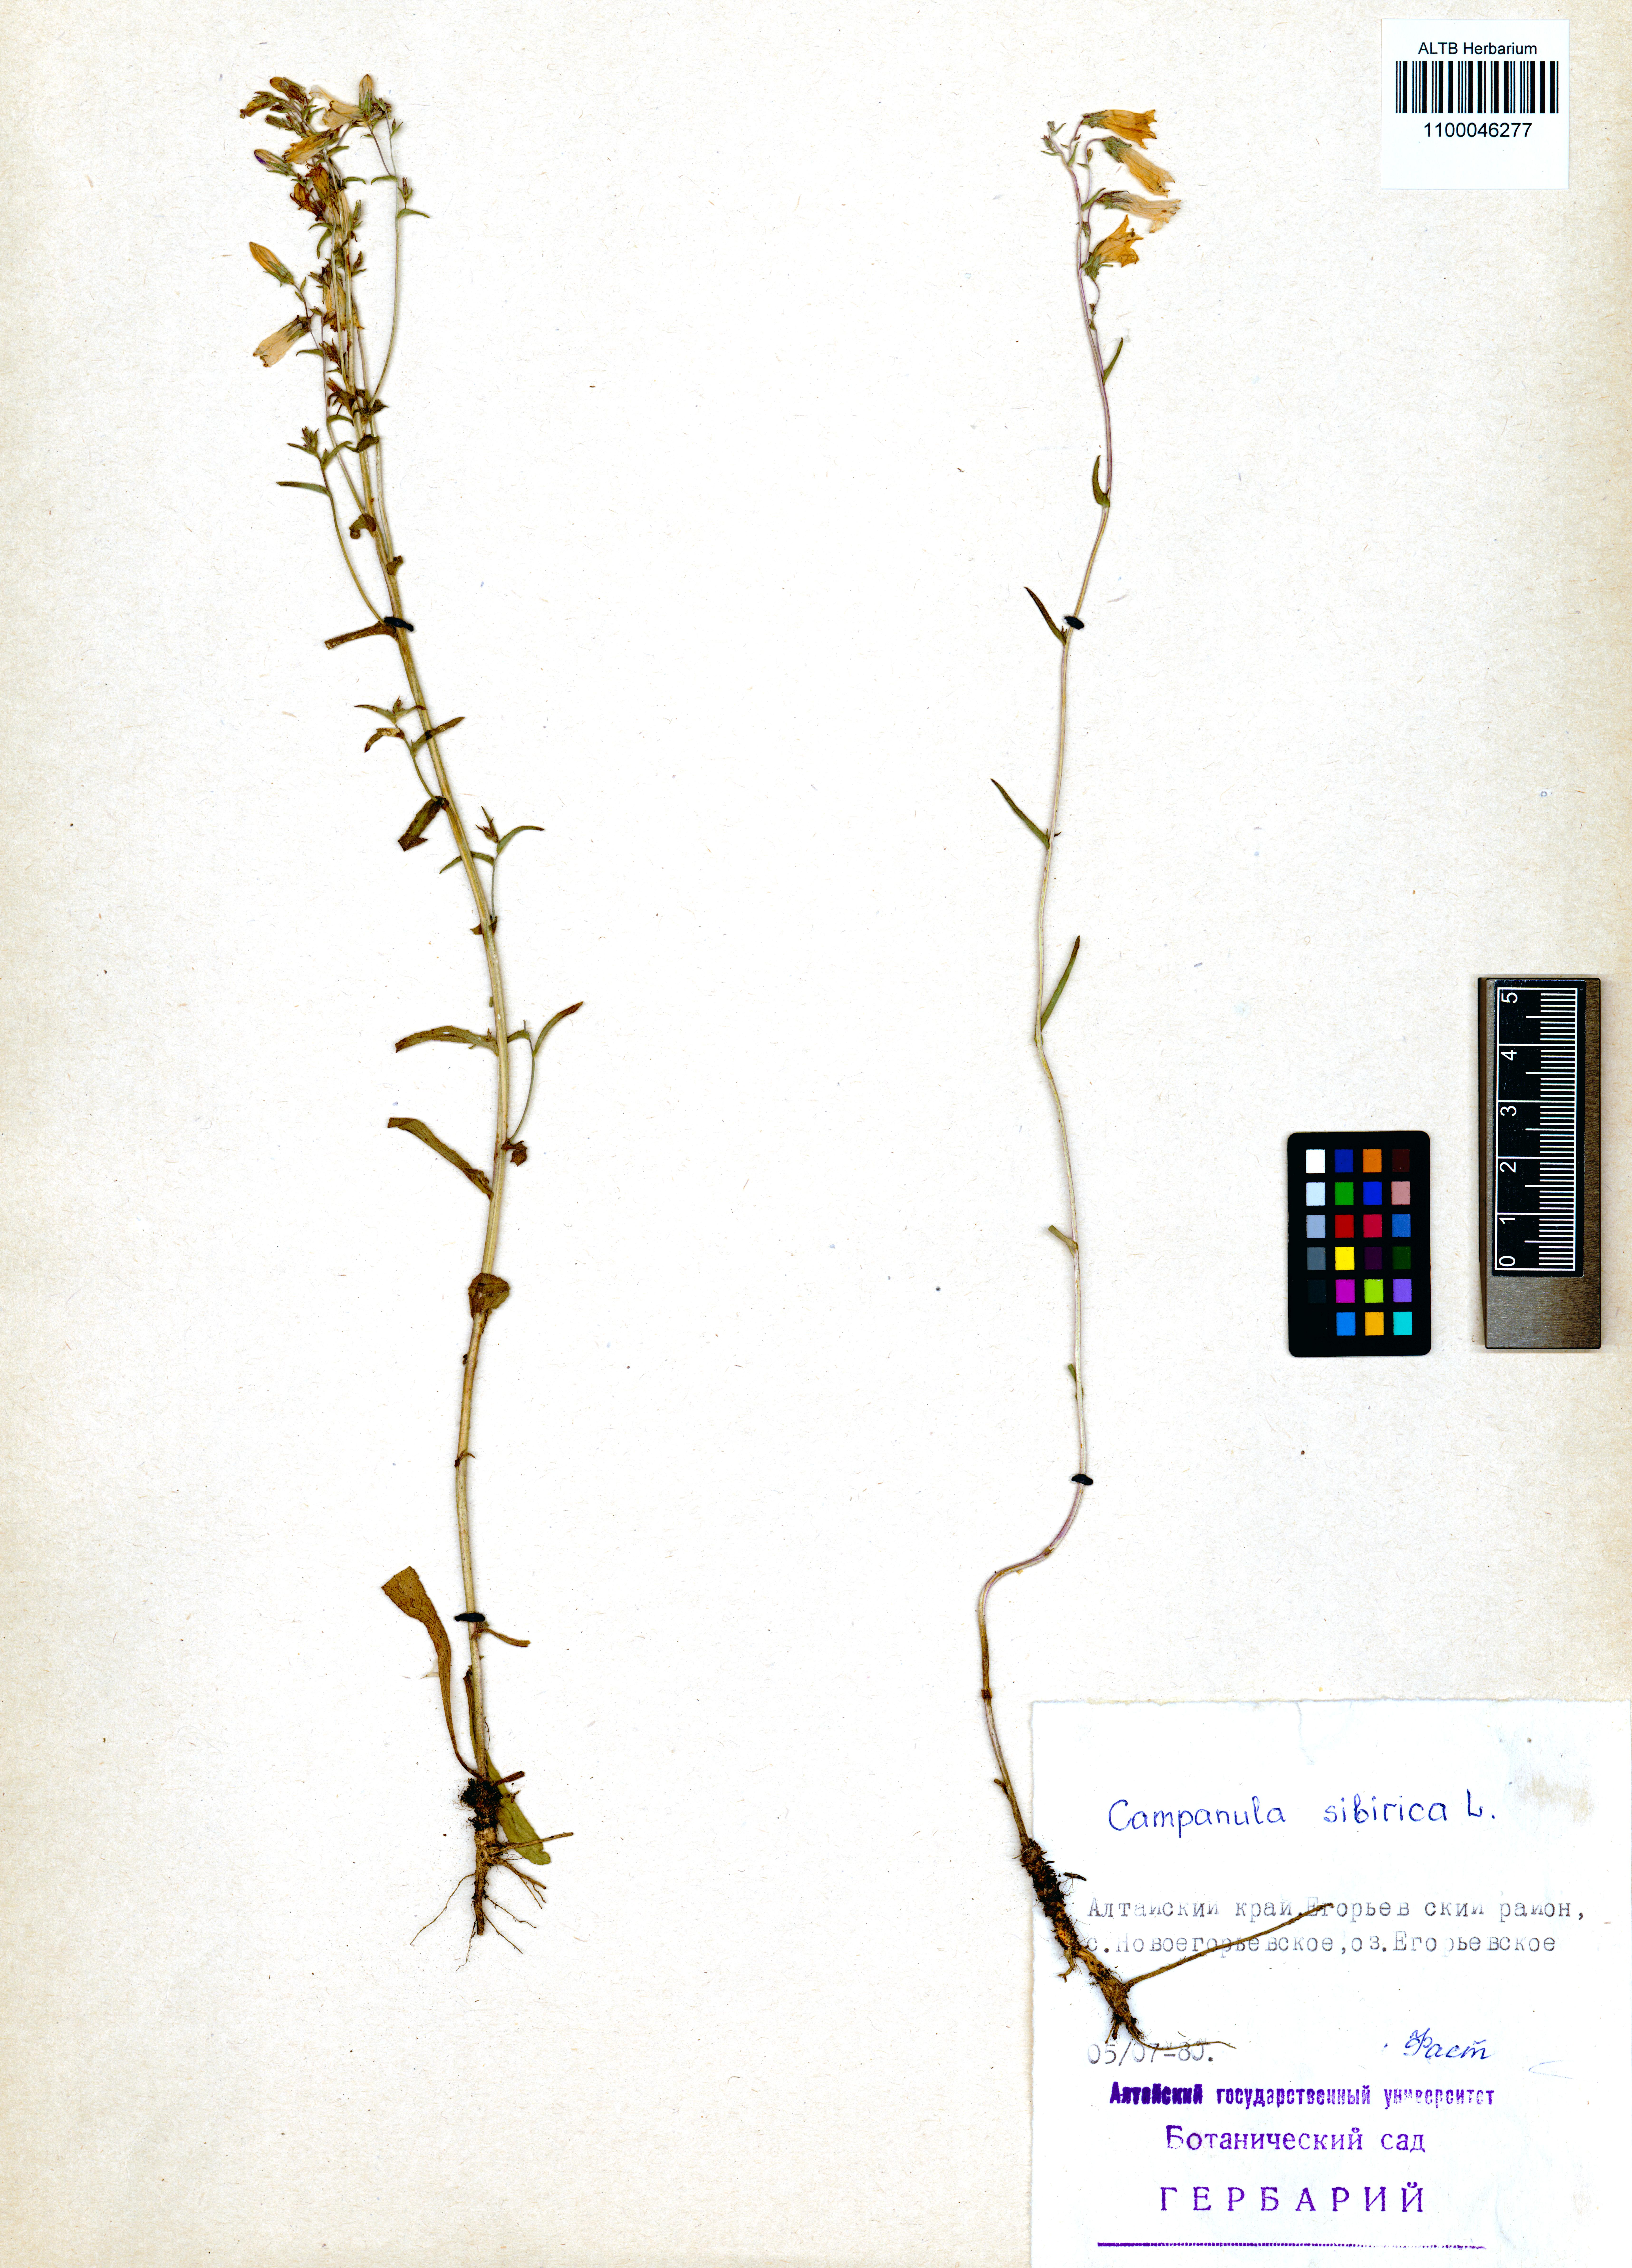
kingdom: Plantae
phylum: Tracheophyta
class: Magnoliopsida
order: Asterales
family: Campanulaceae
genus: Campanula
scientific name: Campanula sibirica
